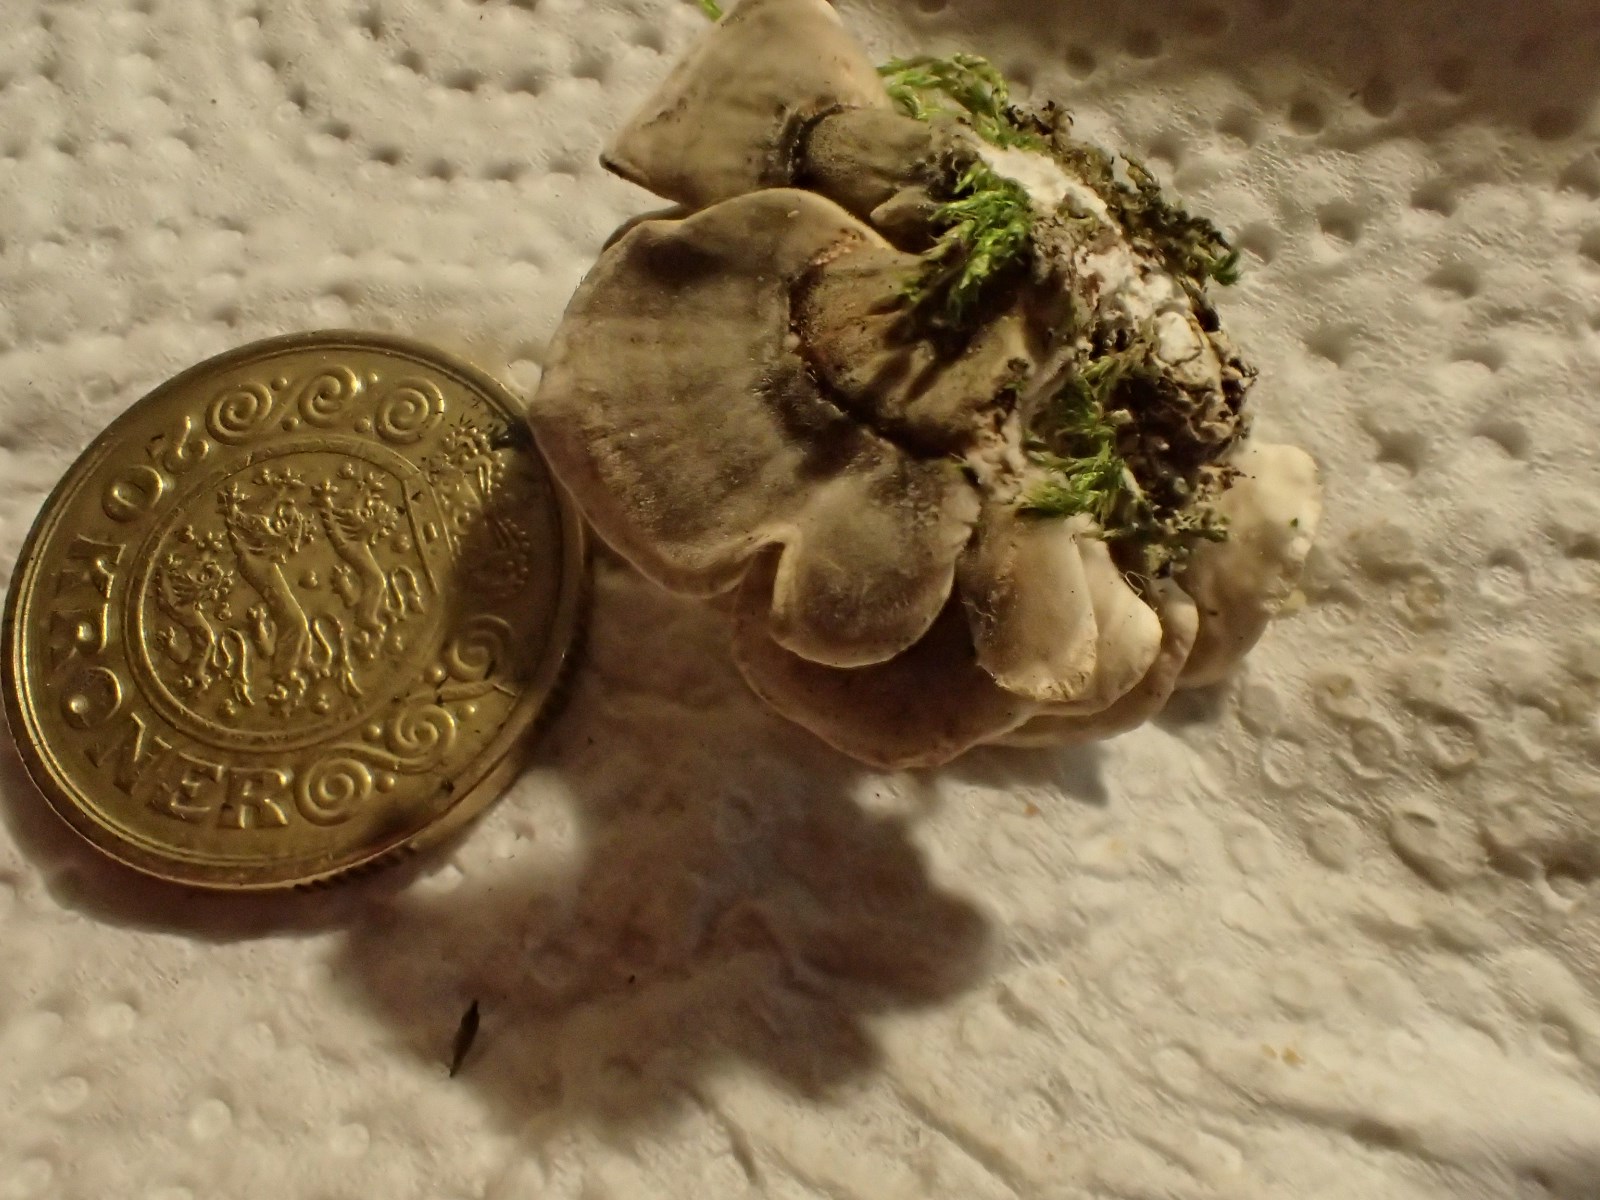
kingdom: Fungi
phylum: Basidiomycota
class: Agaricomycetes
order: Polyporales
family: Polyporaceae
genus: Trametes
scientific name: Trametes
